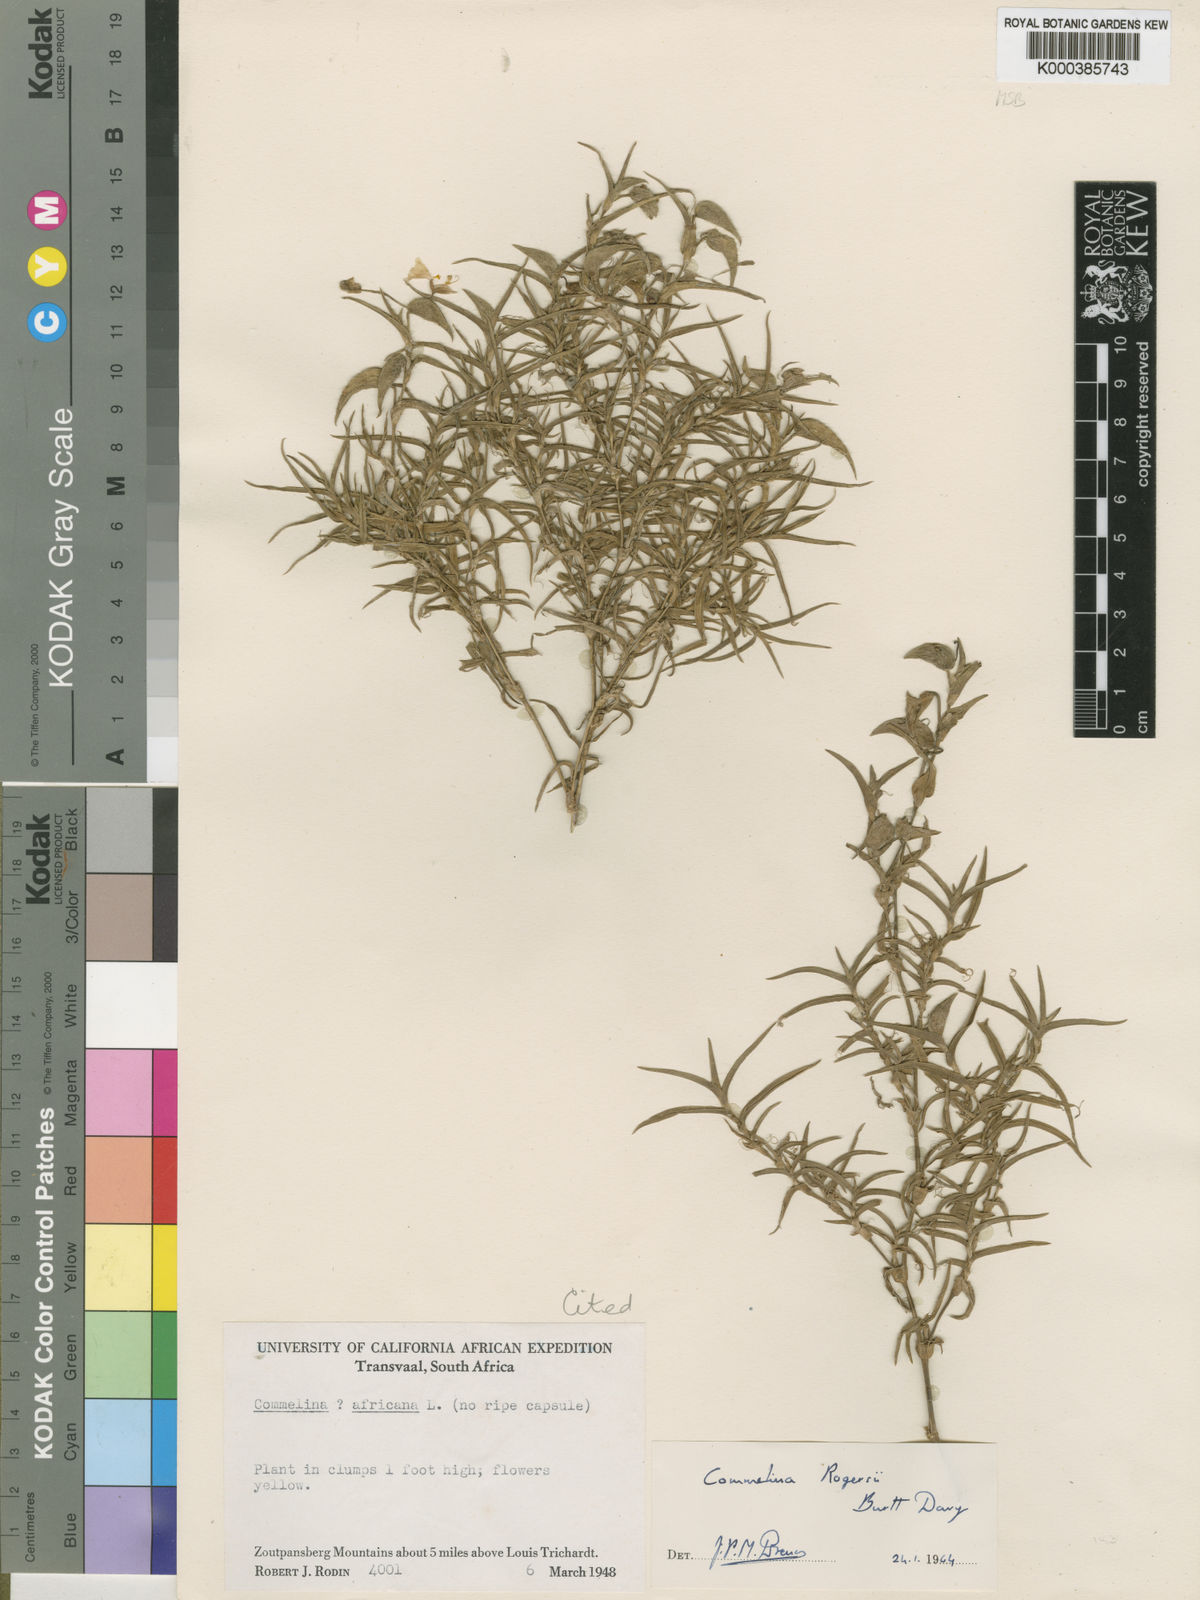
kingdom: Plantae
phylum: Tracheophyta
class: Liliopsida
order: Commelinales
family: Commelinaceae
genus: Commelina
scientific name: Commelina rogersii
